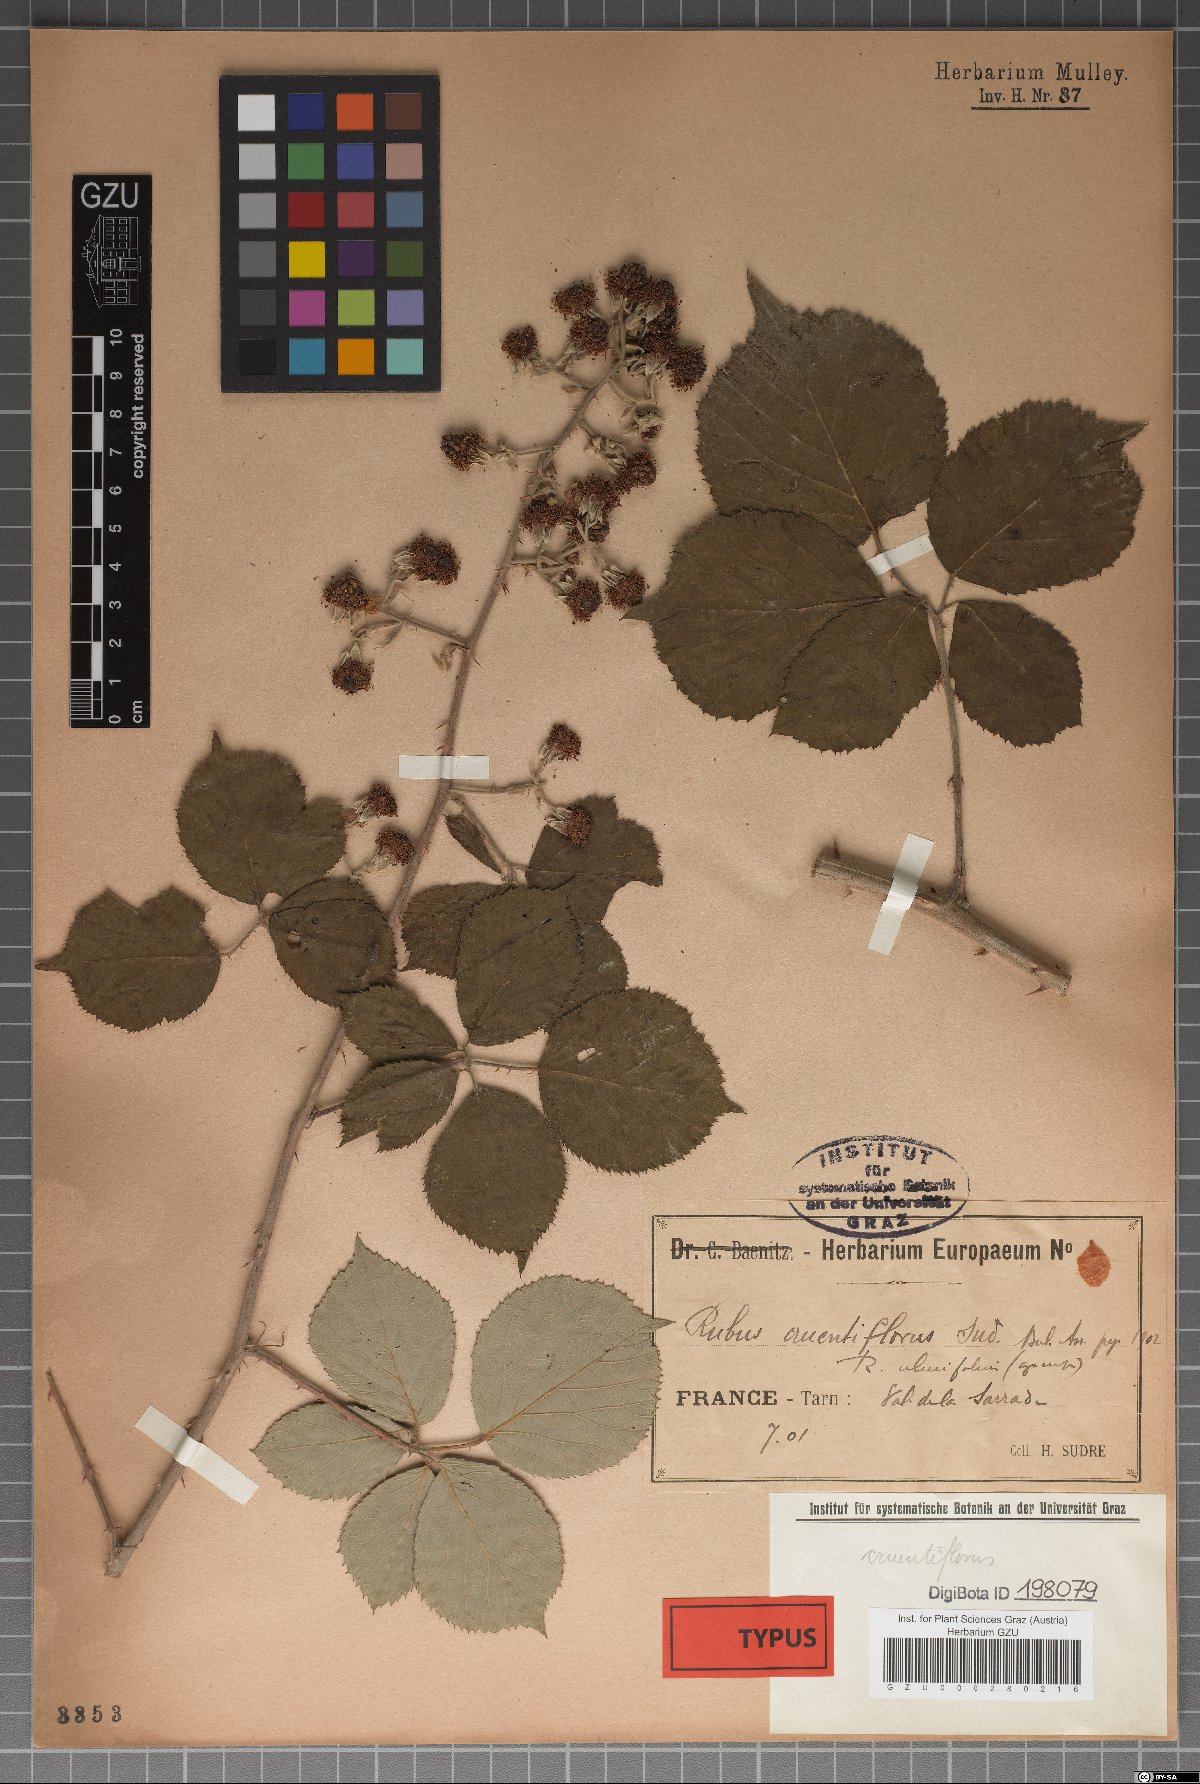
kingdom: Plantae
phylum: Tracheophyta
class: Magnoliopsida
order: Rosales
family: Rosaceae
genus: Rubus
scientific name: Rubus ulmifolius
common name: Elmleaf blackberry
